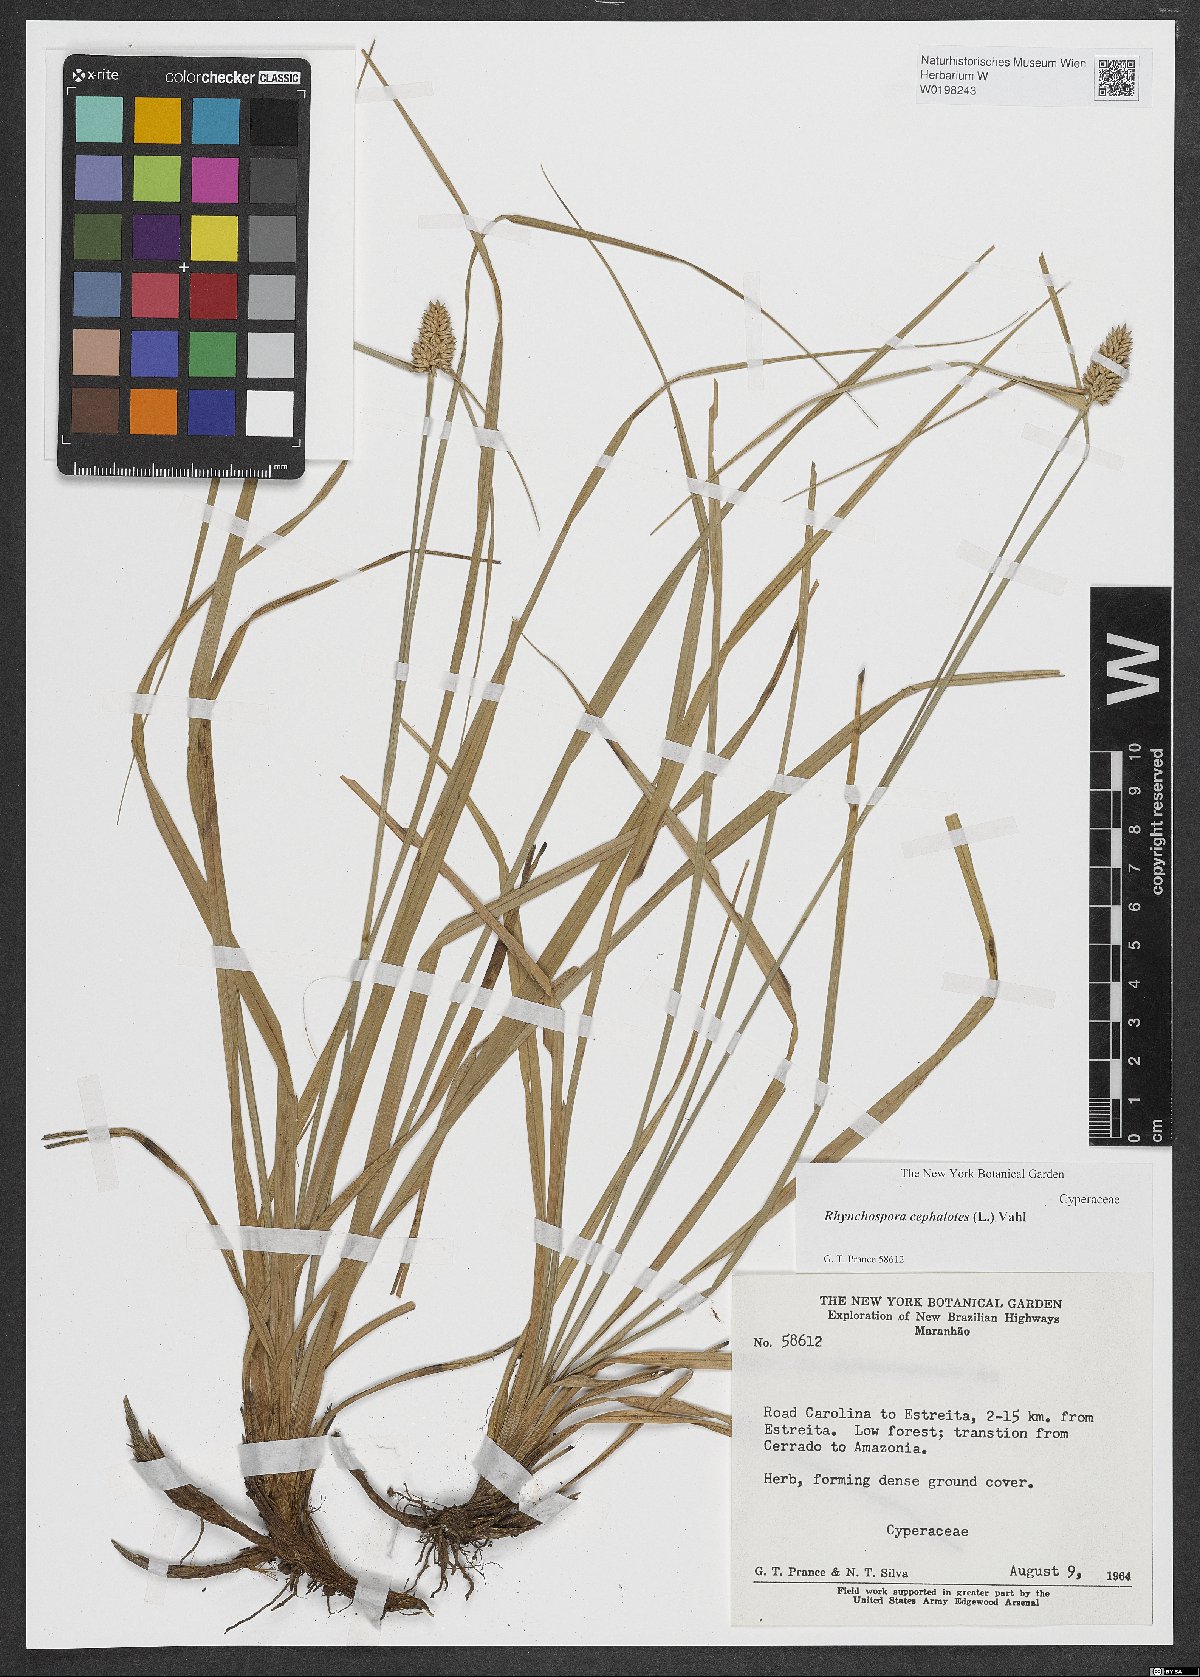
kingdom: Plantae
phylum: Tracheophyta
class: Liliopsida
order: Poales
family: Cyperaceae
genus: Rhynchospora
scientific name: Rhynchospora cephalotes
